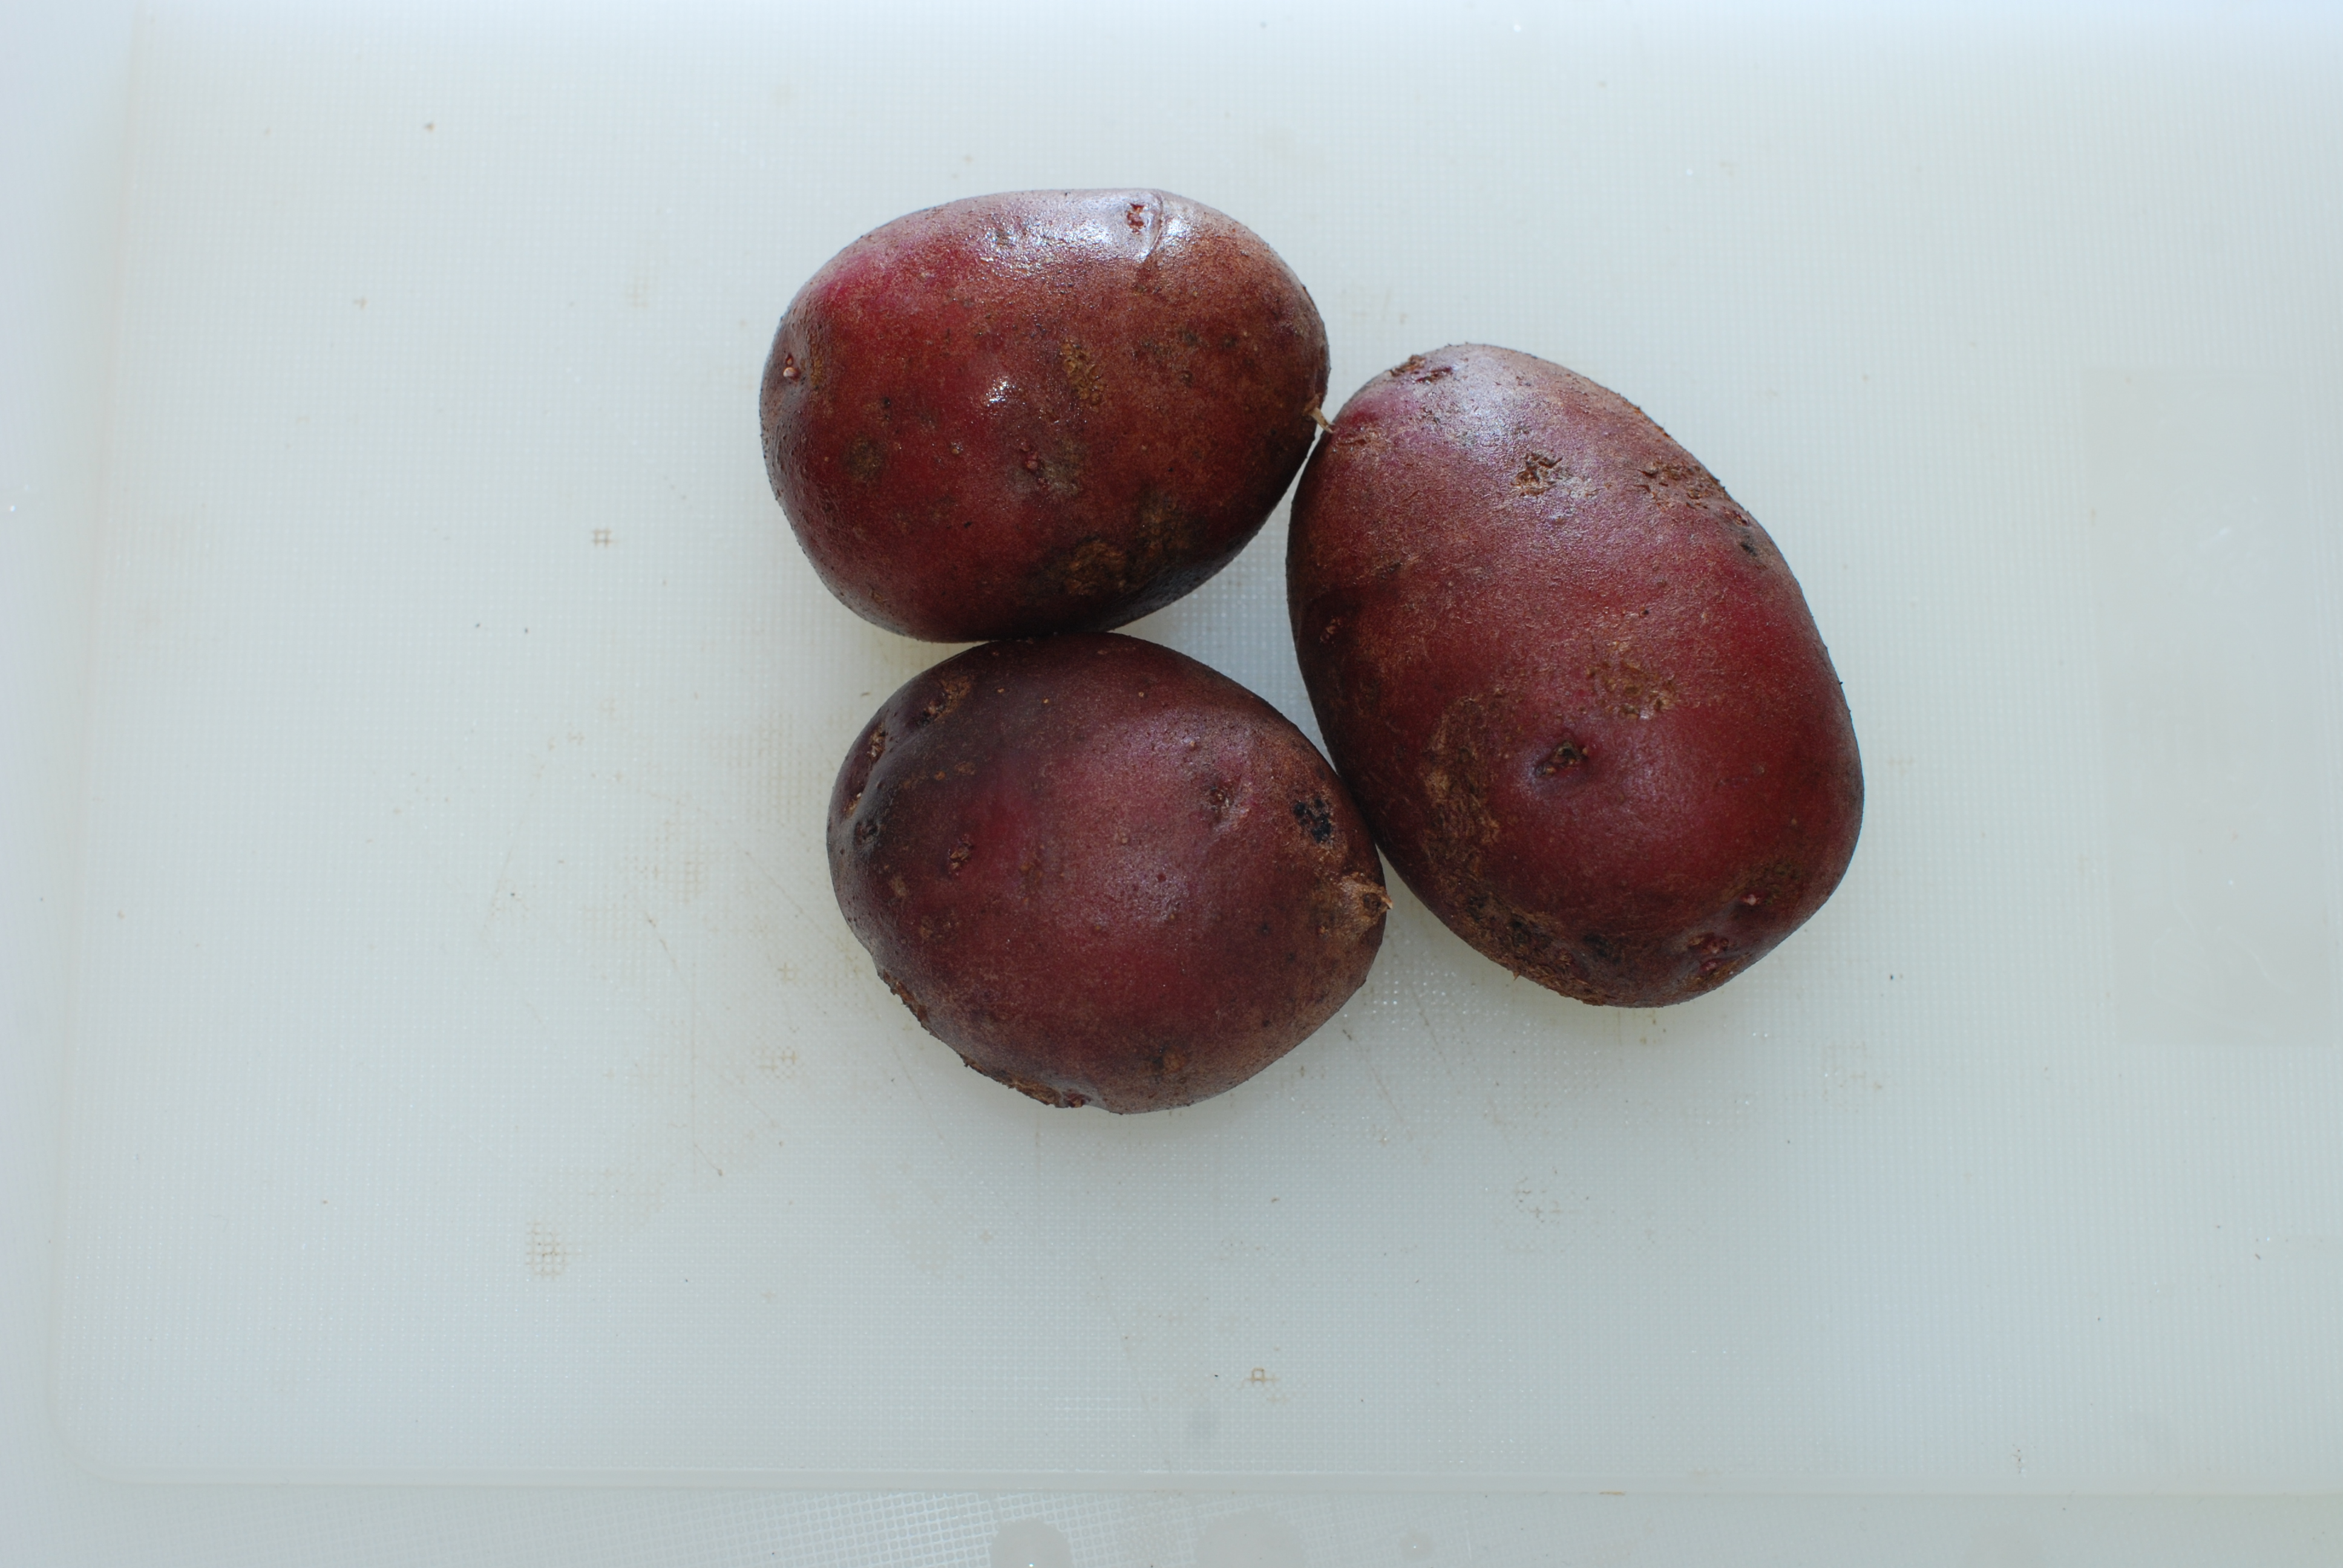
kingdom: Plantae
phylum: Tracheophyta
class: Magnoliopsida
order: Solanales
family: Solanaceae
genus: Solanum
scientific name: Solanum tuberosum
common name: Potato
